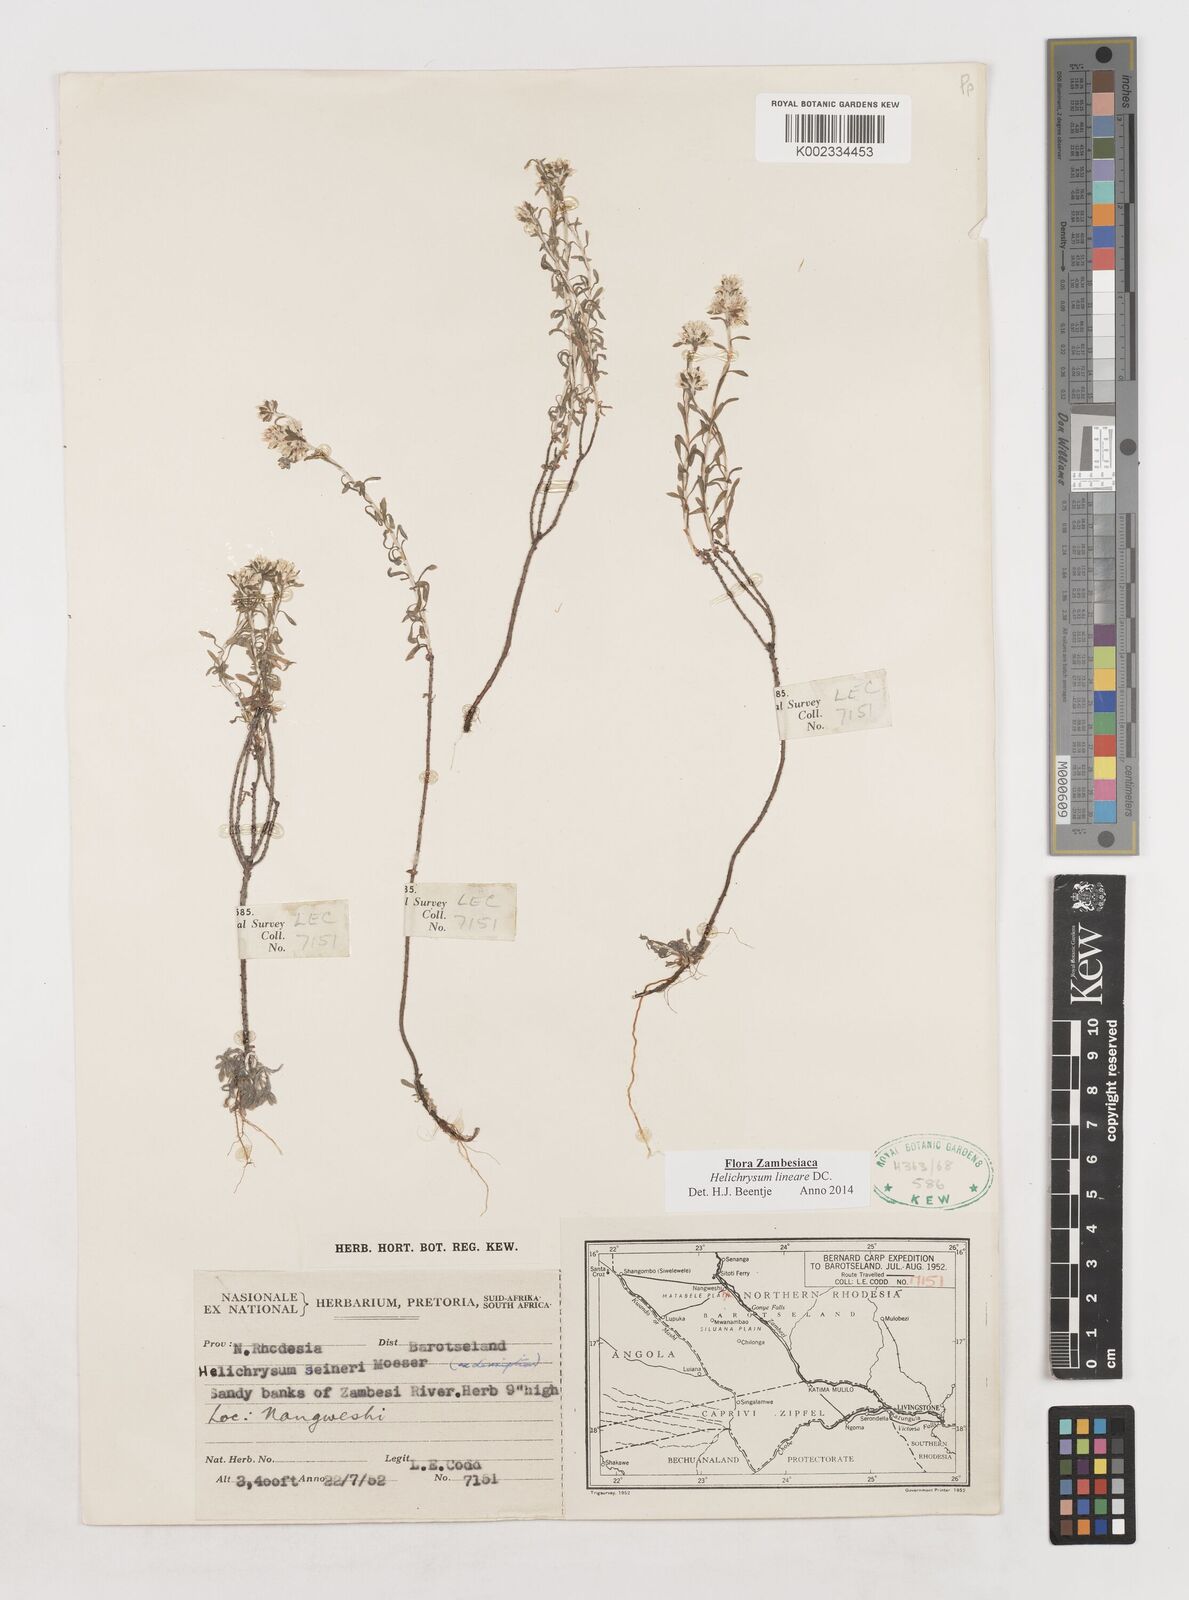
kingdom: Plantae
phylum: Tracheophyta
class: Magnoliopsida
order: Asterales
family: Asteraceae
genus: Helichrysum
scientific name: Helichrysum lineare
